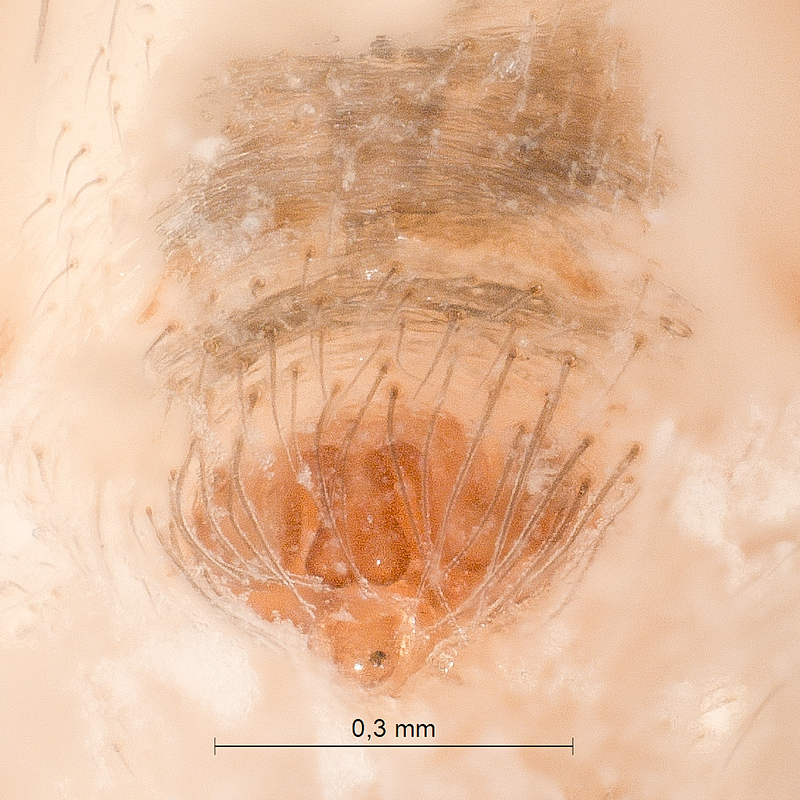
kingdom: Animalia
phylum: Arthropoda
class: Arachnida
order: Araneae
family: Linyphiidae
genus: Bolyphantes
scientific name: Bolyphantes alticeps
